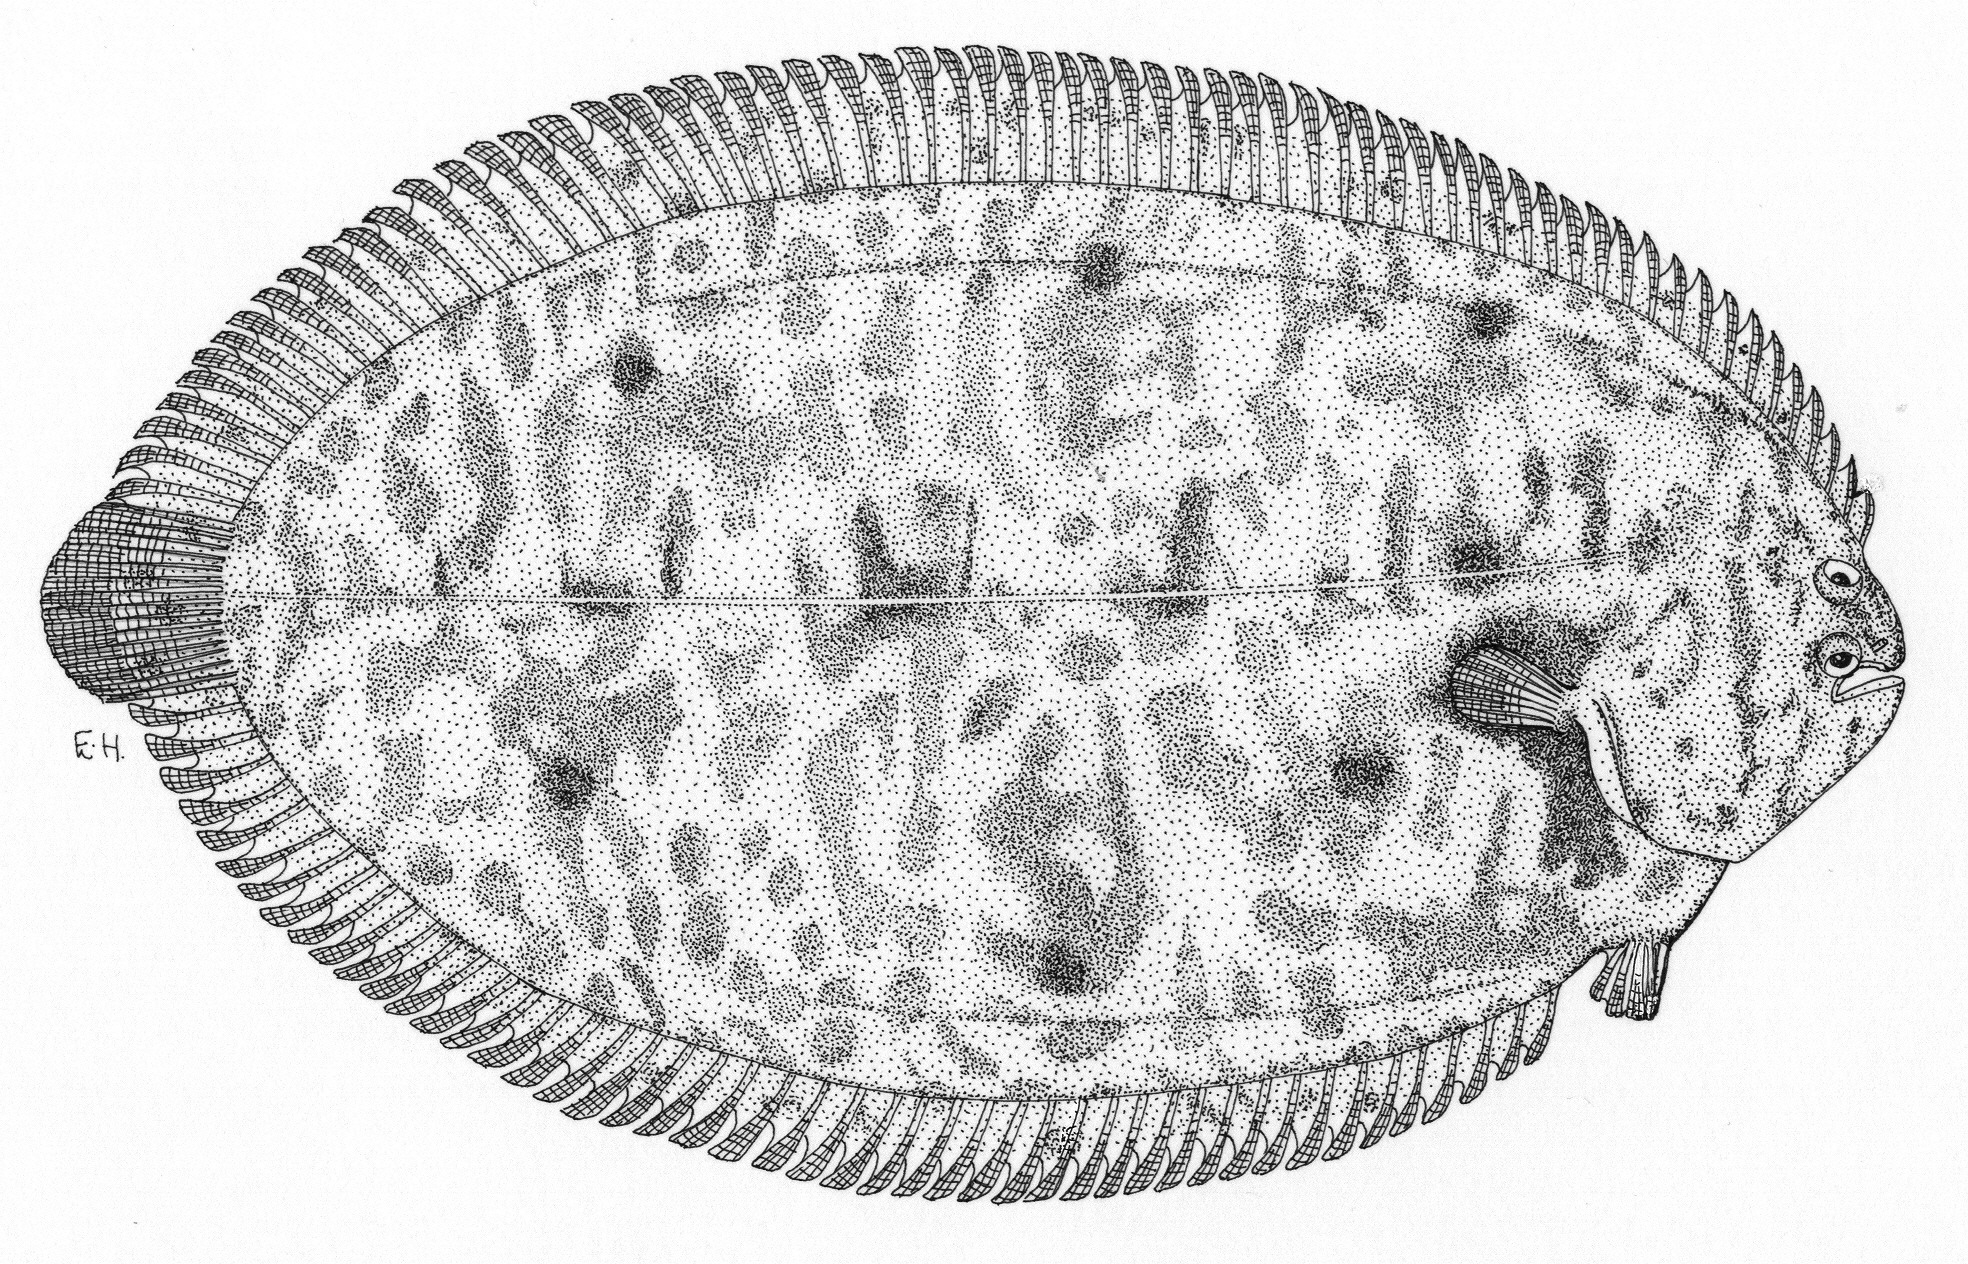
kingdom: Animalia
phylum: Chordata
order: Pleuronectiformes
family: Soleidae
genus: Brachirus
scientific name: Brachirus orientalis
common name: Oriental sole
